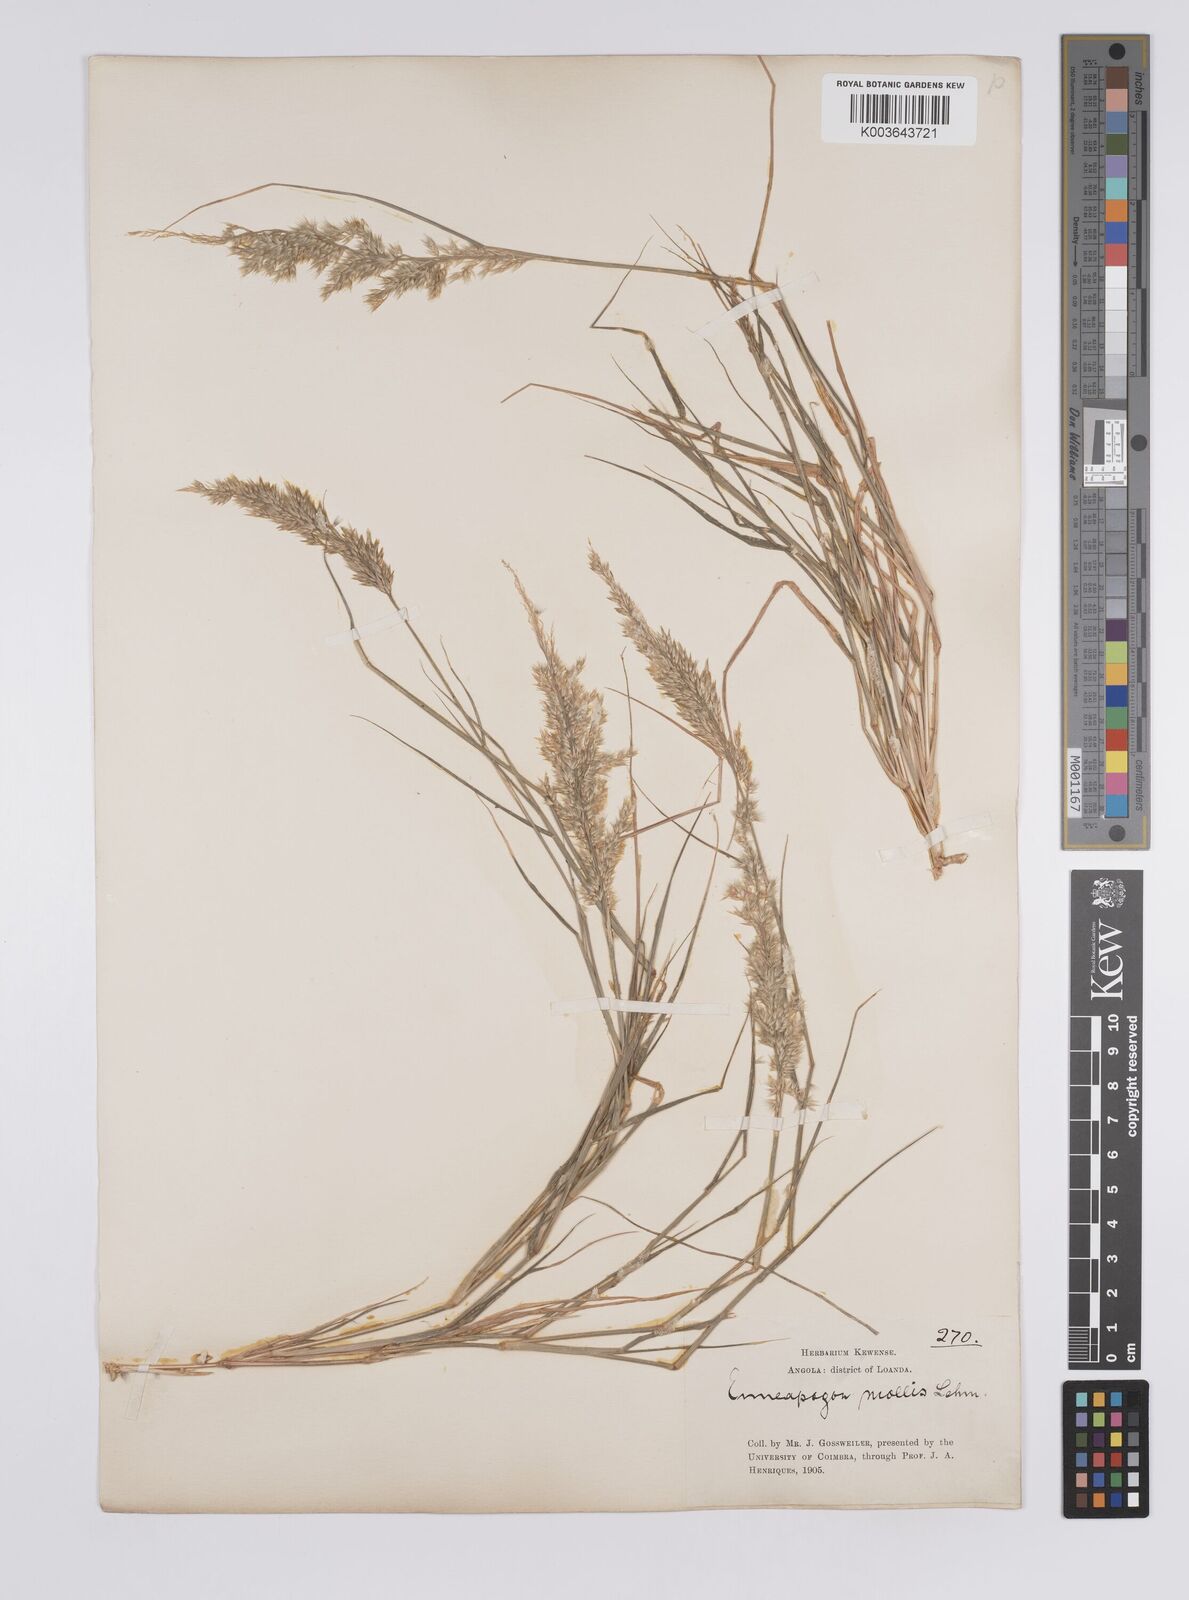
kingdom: Plantae
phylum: Tracheophyta
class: Liliopsida
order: Poales
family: Poaceae
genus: Enneapogon
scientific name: Enneapogon cenchroides
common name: Soft feather pappusgrass
